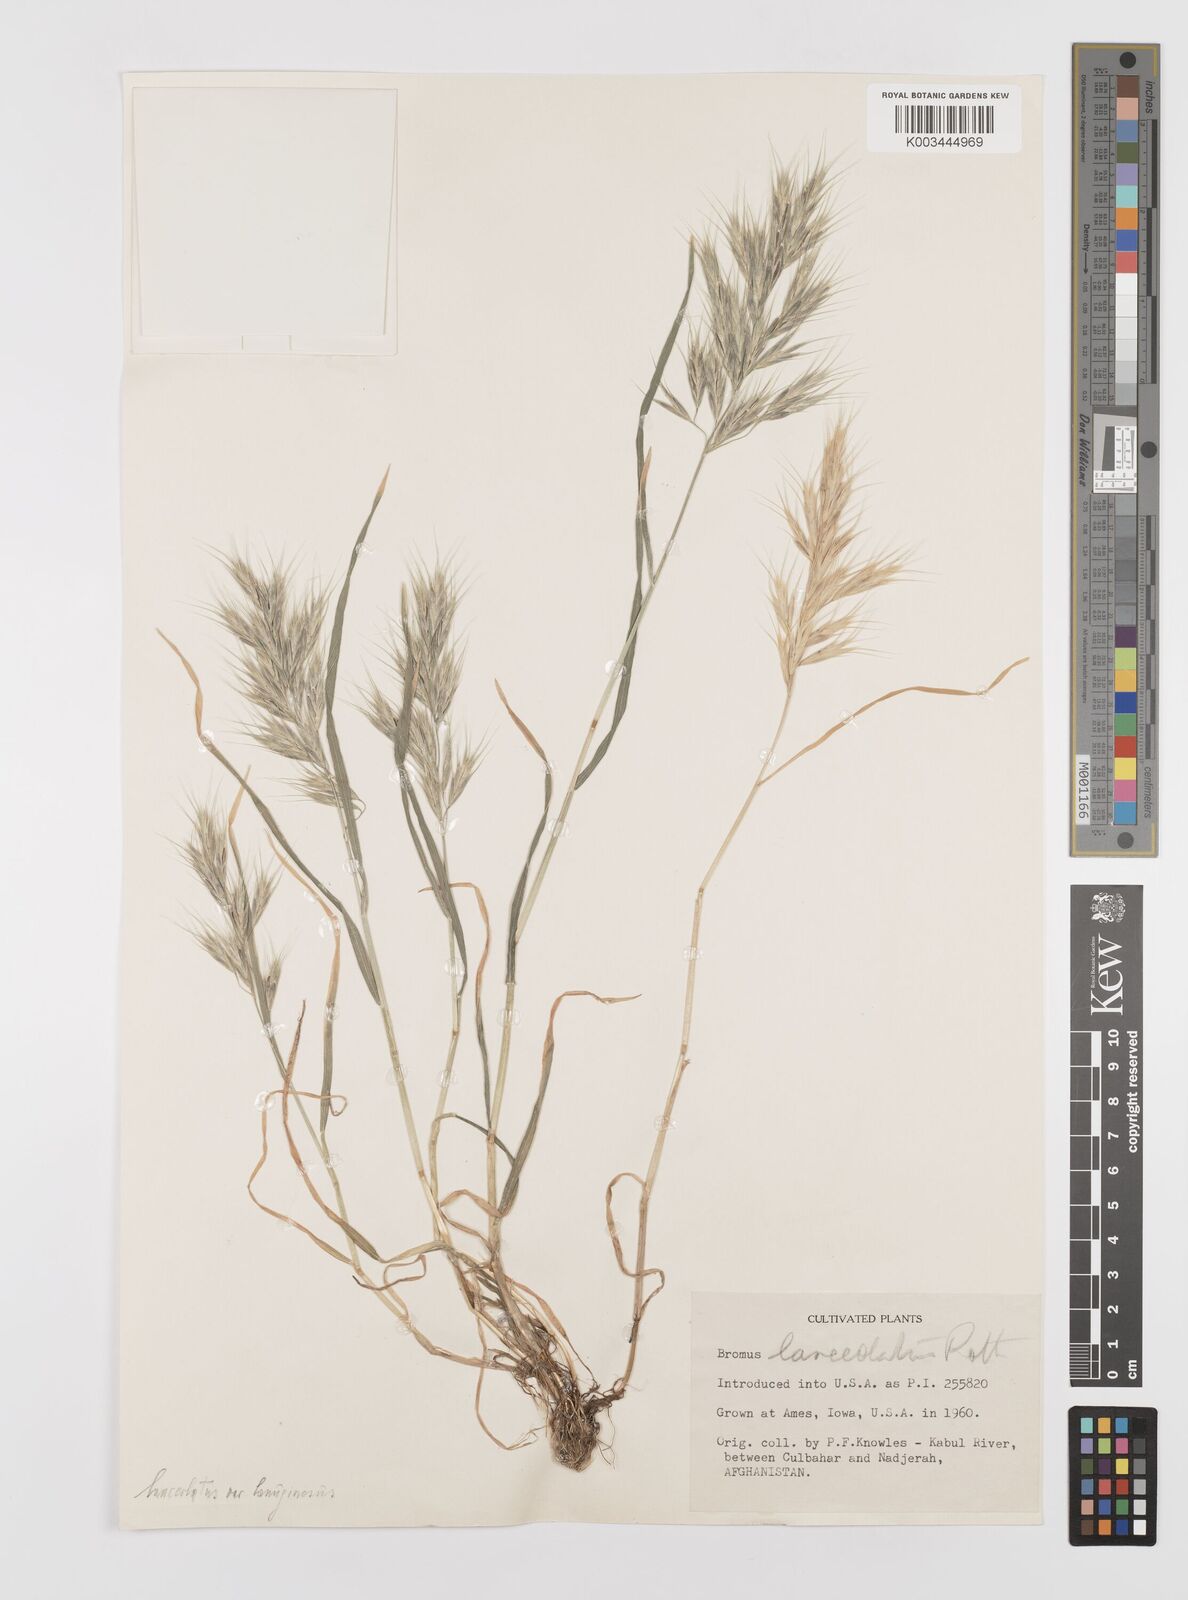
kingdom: Plantae
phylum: Tracheophyta
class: Liliopsida
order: Poales
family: Poaceae
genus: Bromus
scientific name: Bromus lanceolatus
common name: Mediterranean brome
